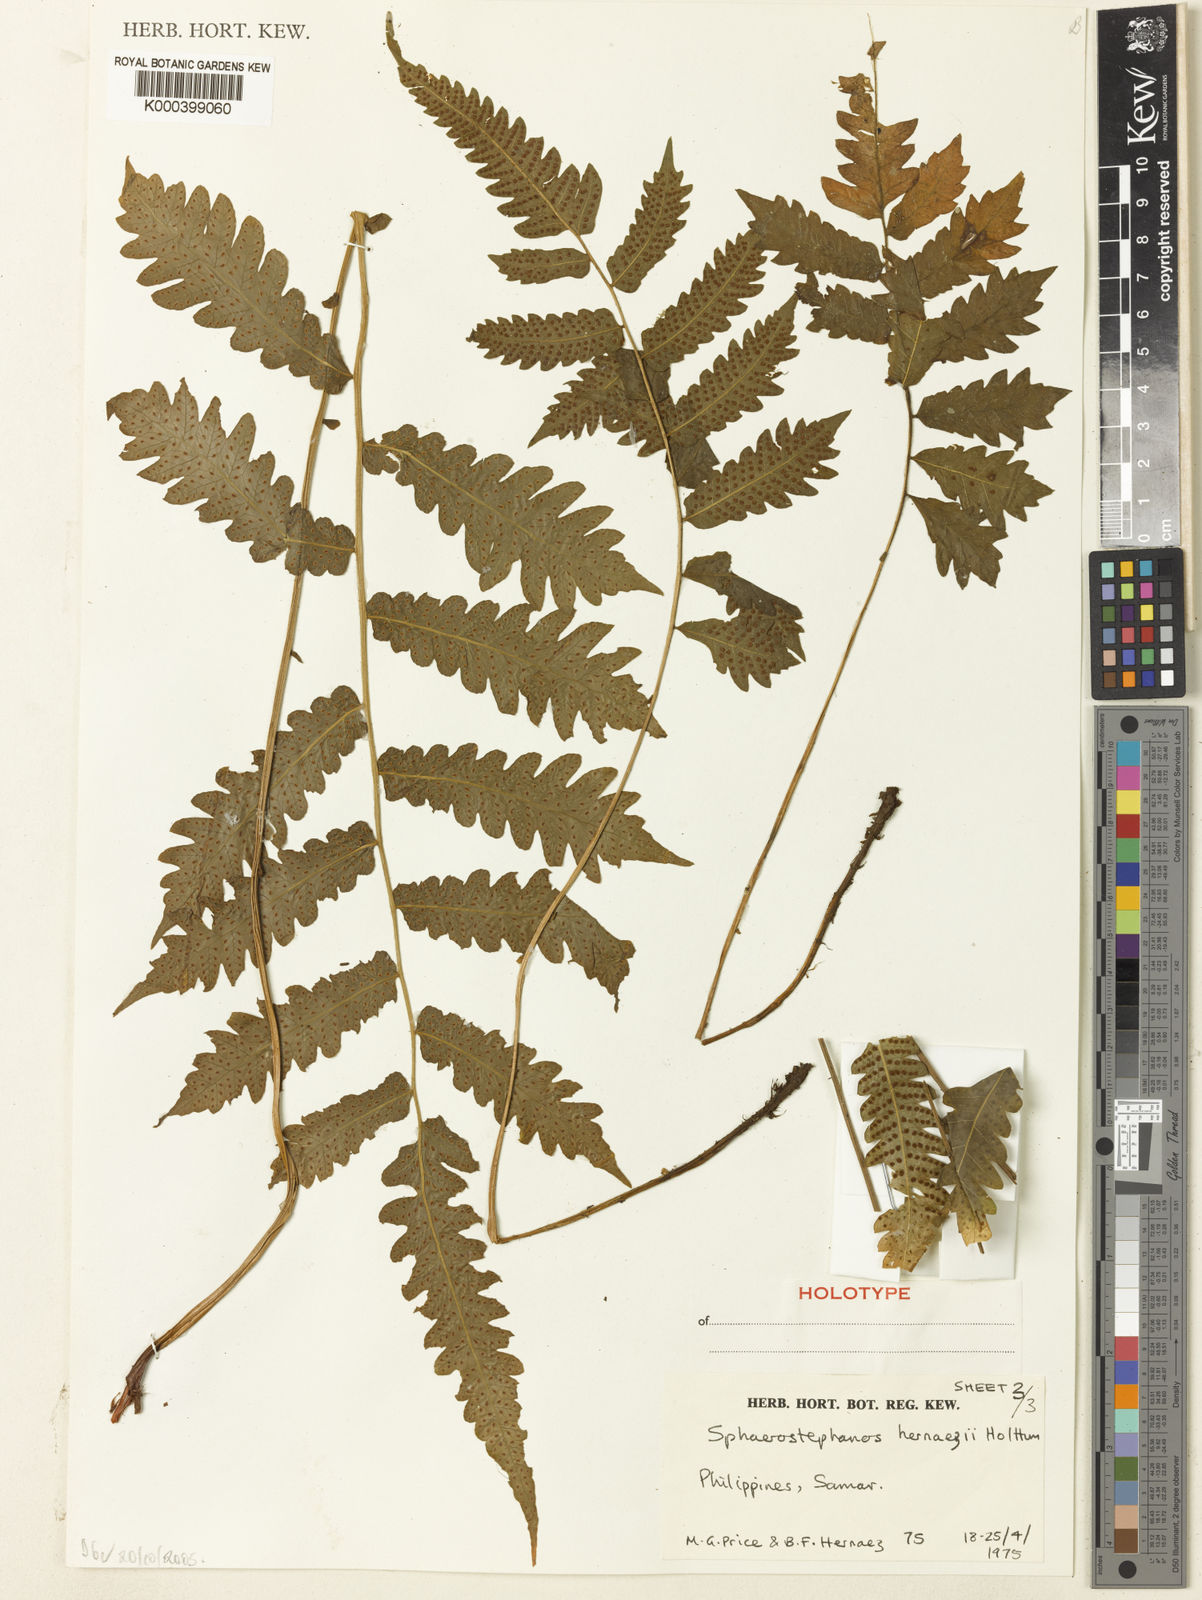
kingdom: Plantae
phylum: Tracheophyta
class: Polypodiopsida
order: Polypodiales
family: Thelypteridaceae
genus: Sphaerostephanos
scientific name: Sphaerostephanos hernaezii
